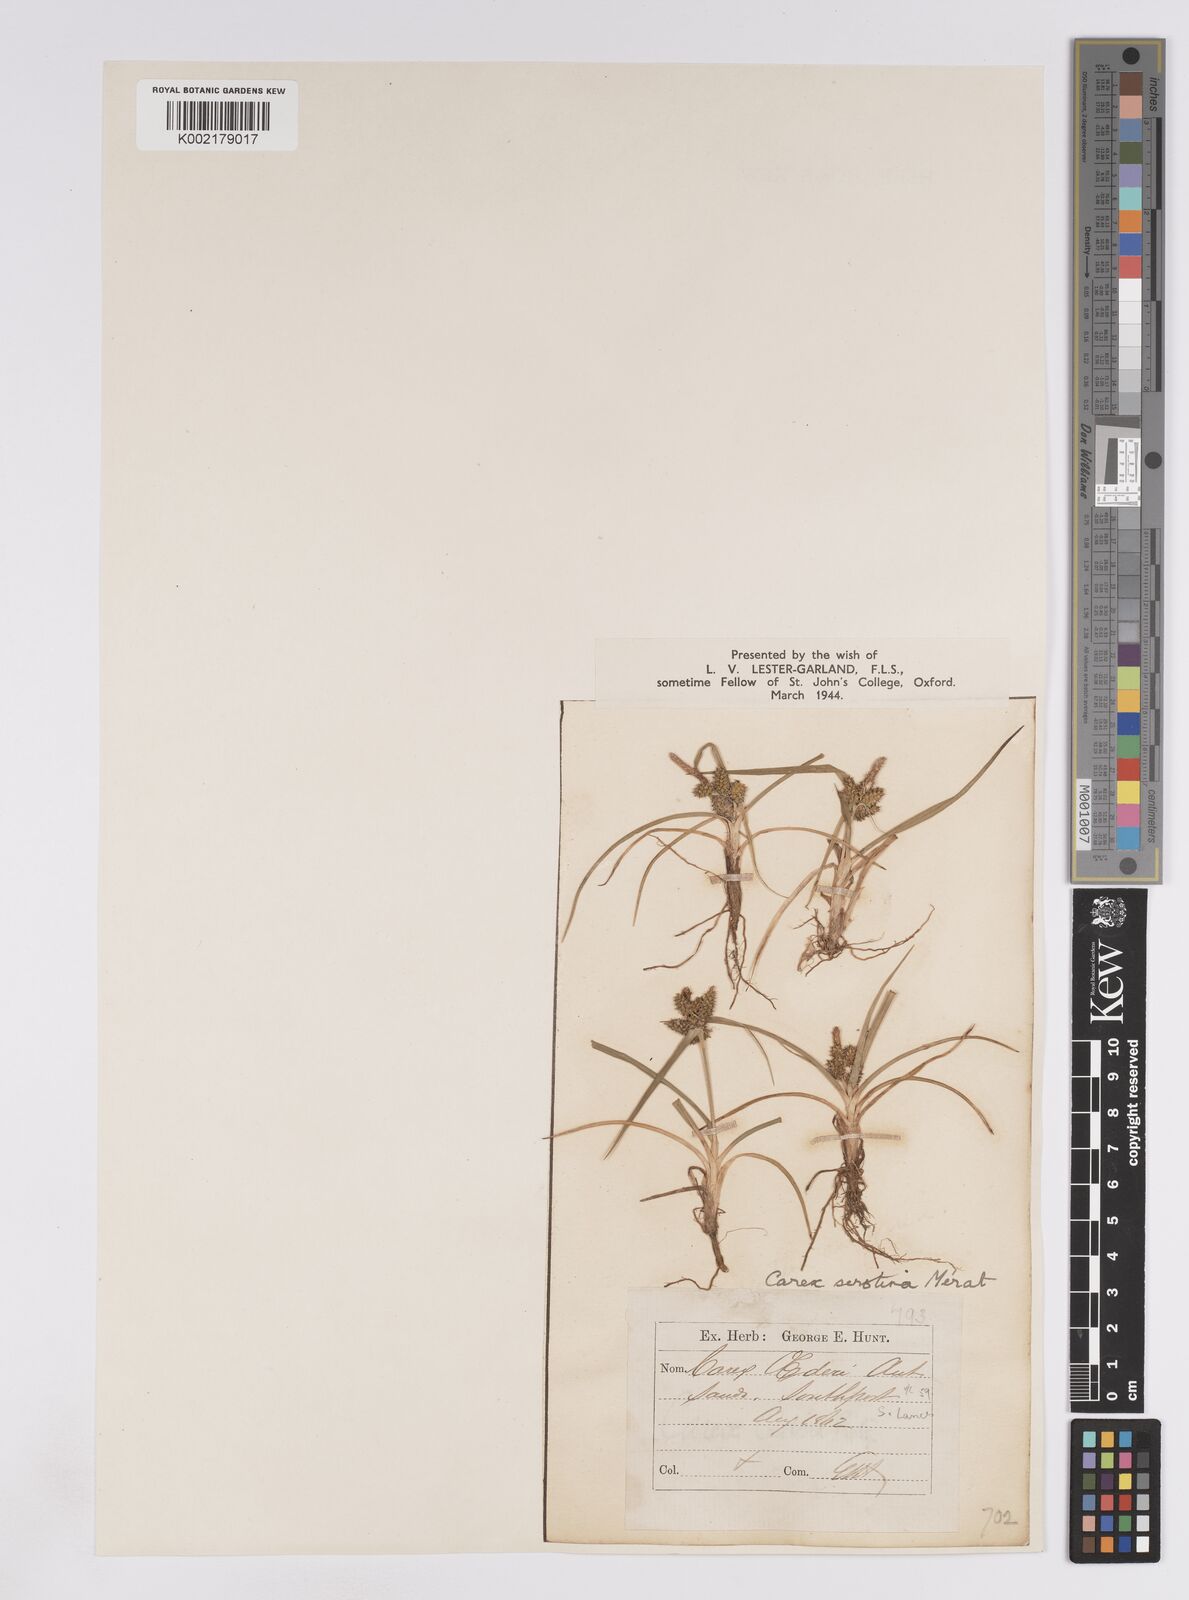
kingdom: Plantae
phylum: Tracheophyta
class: Liliopsida
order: Poales
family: Cyperaceae
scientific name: Cyperaceae
